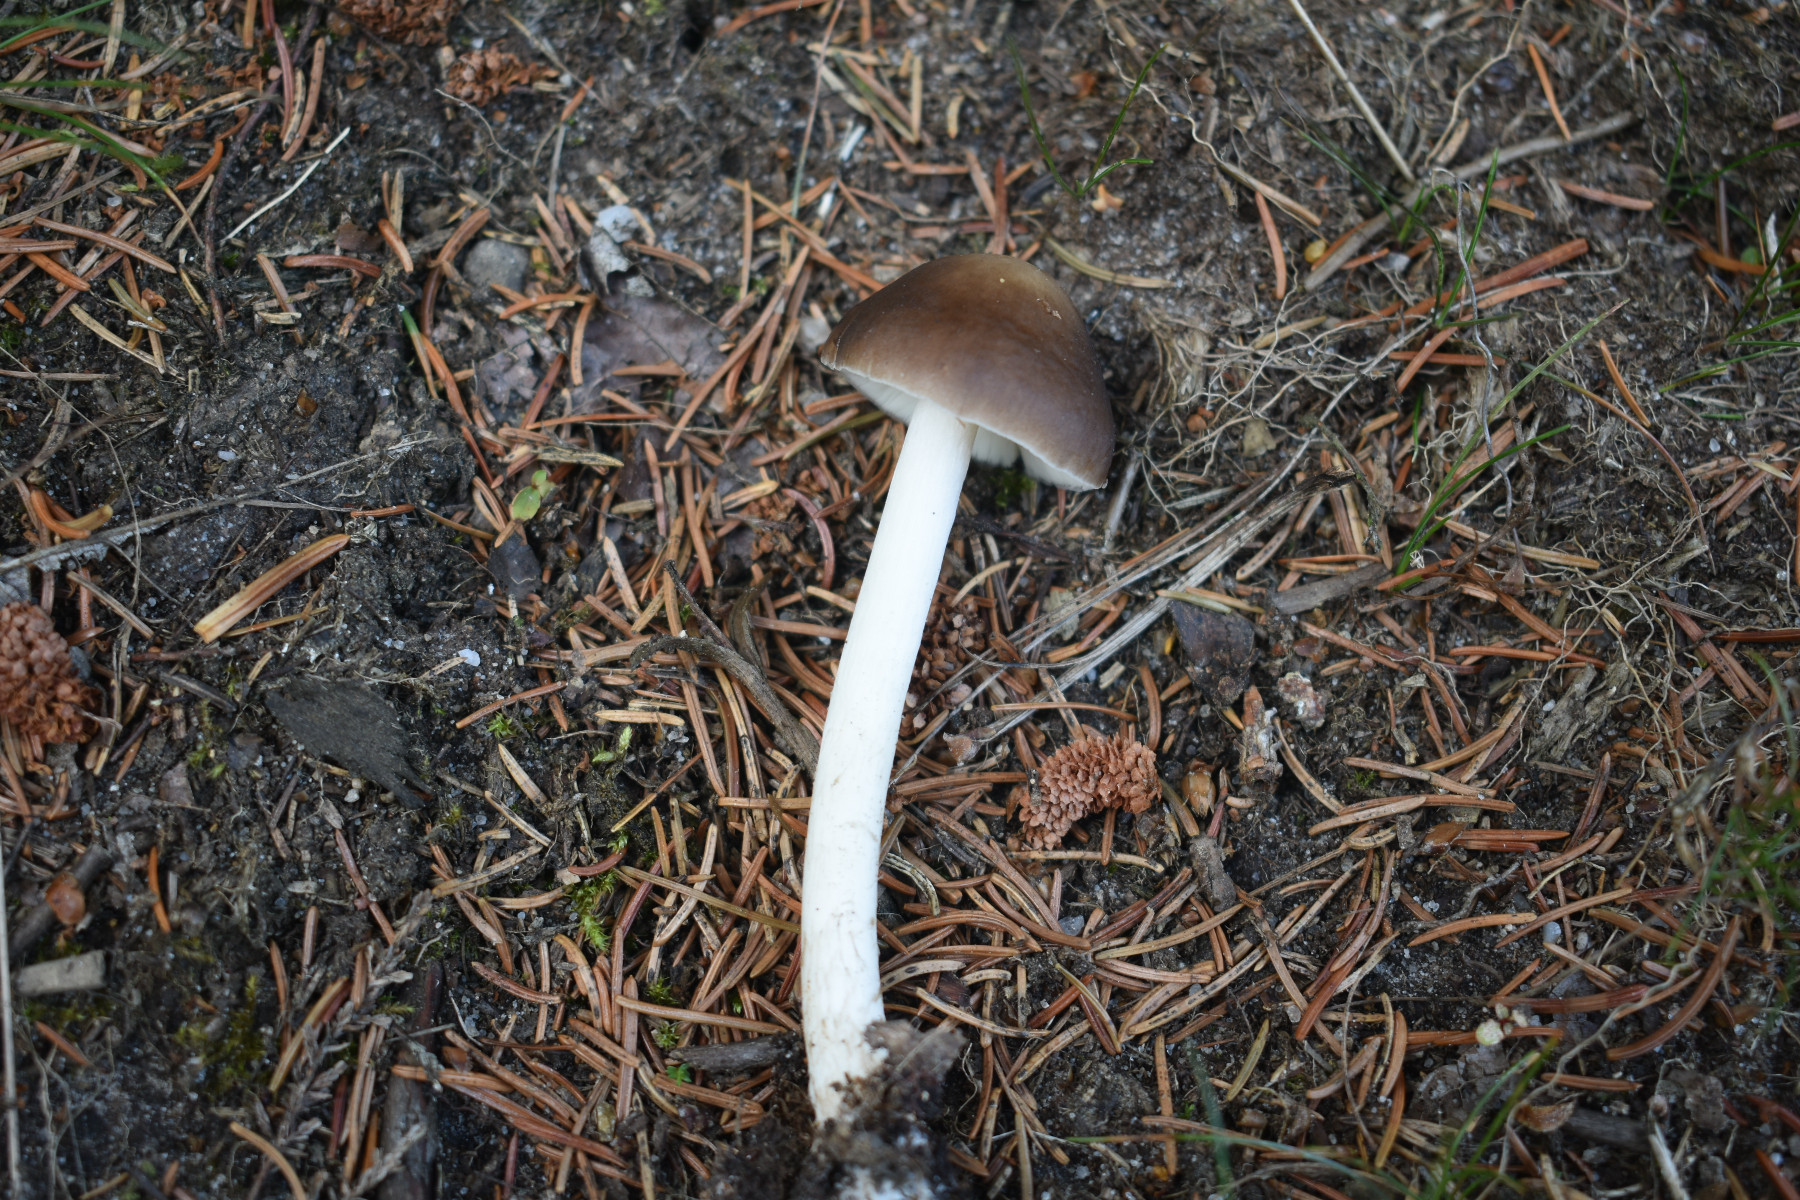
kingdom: Fungi
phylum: Basidiomycota
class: Agaricomycetes
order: Agaricales
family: Pluteaceae
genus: Pluteus
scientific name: Pluteus pouzarianus
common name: plantage-skærmhat
